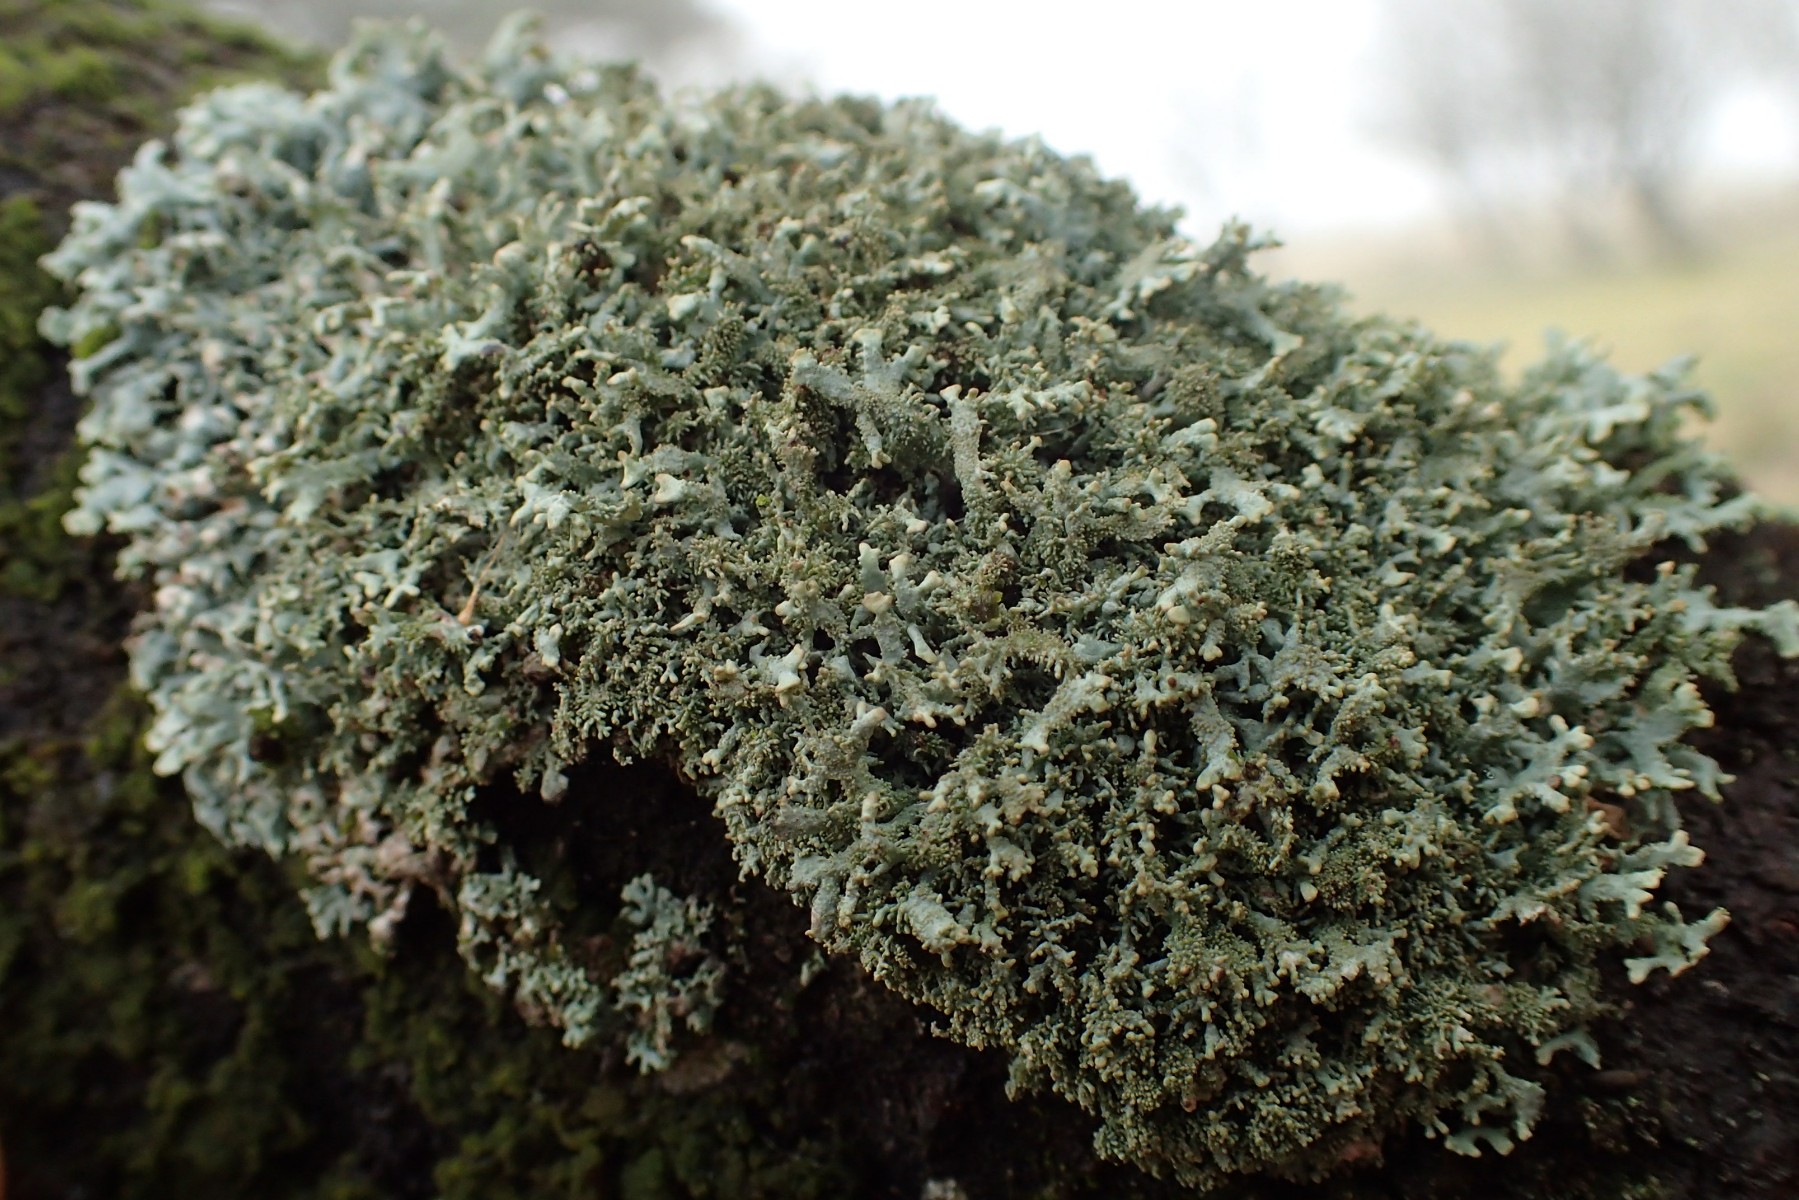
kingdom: Fungi
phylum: Ascomycota
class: Lecanoromycetes
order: Lecanorales
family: Parmeliaceae
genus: Pseudevernia
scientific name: Pseudevernia furfuracea
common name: grå fyrrelav
